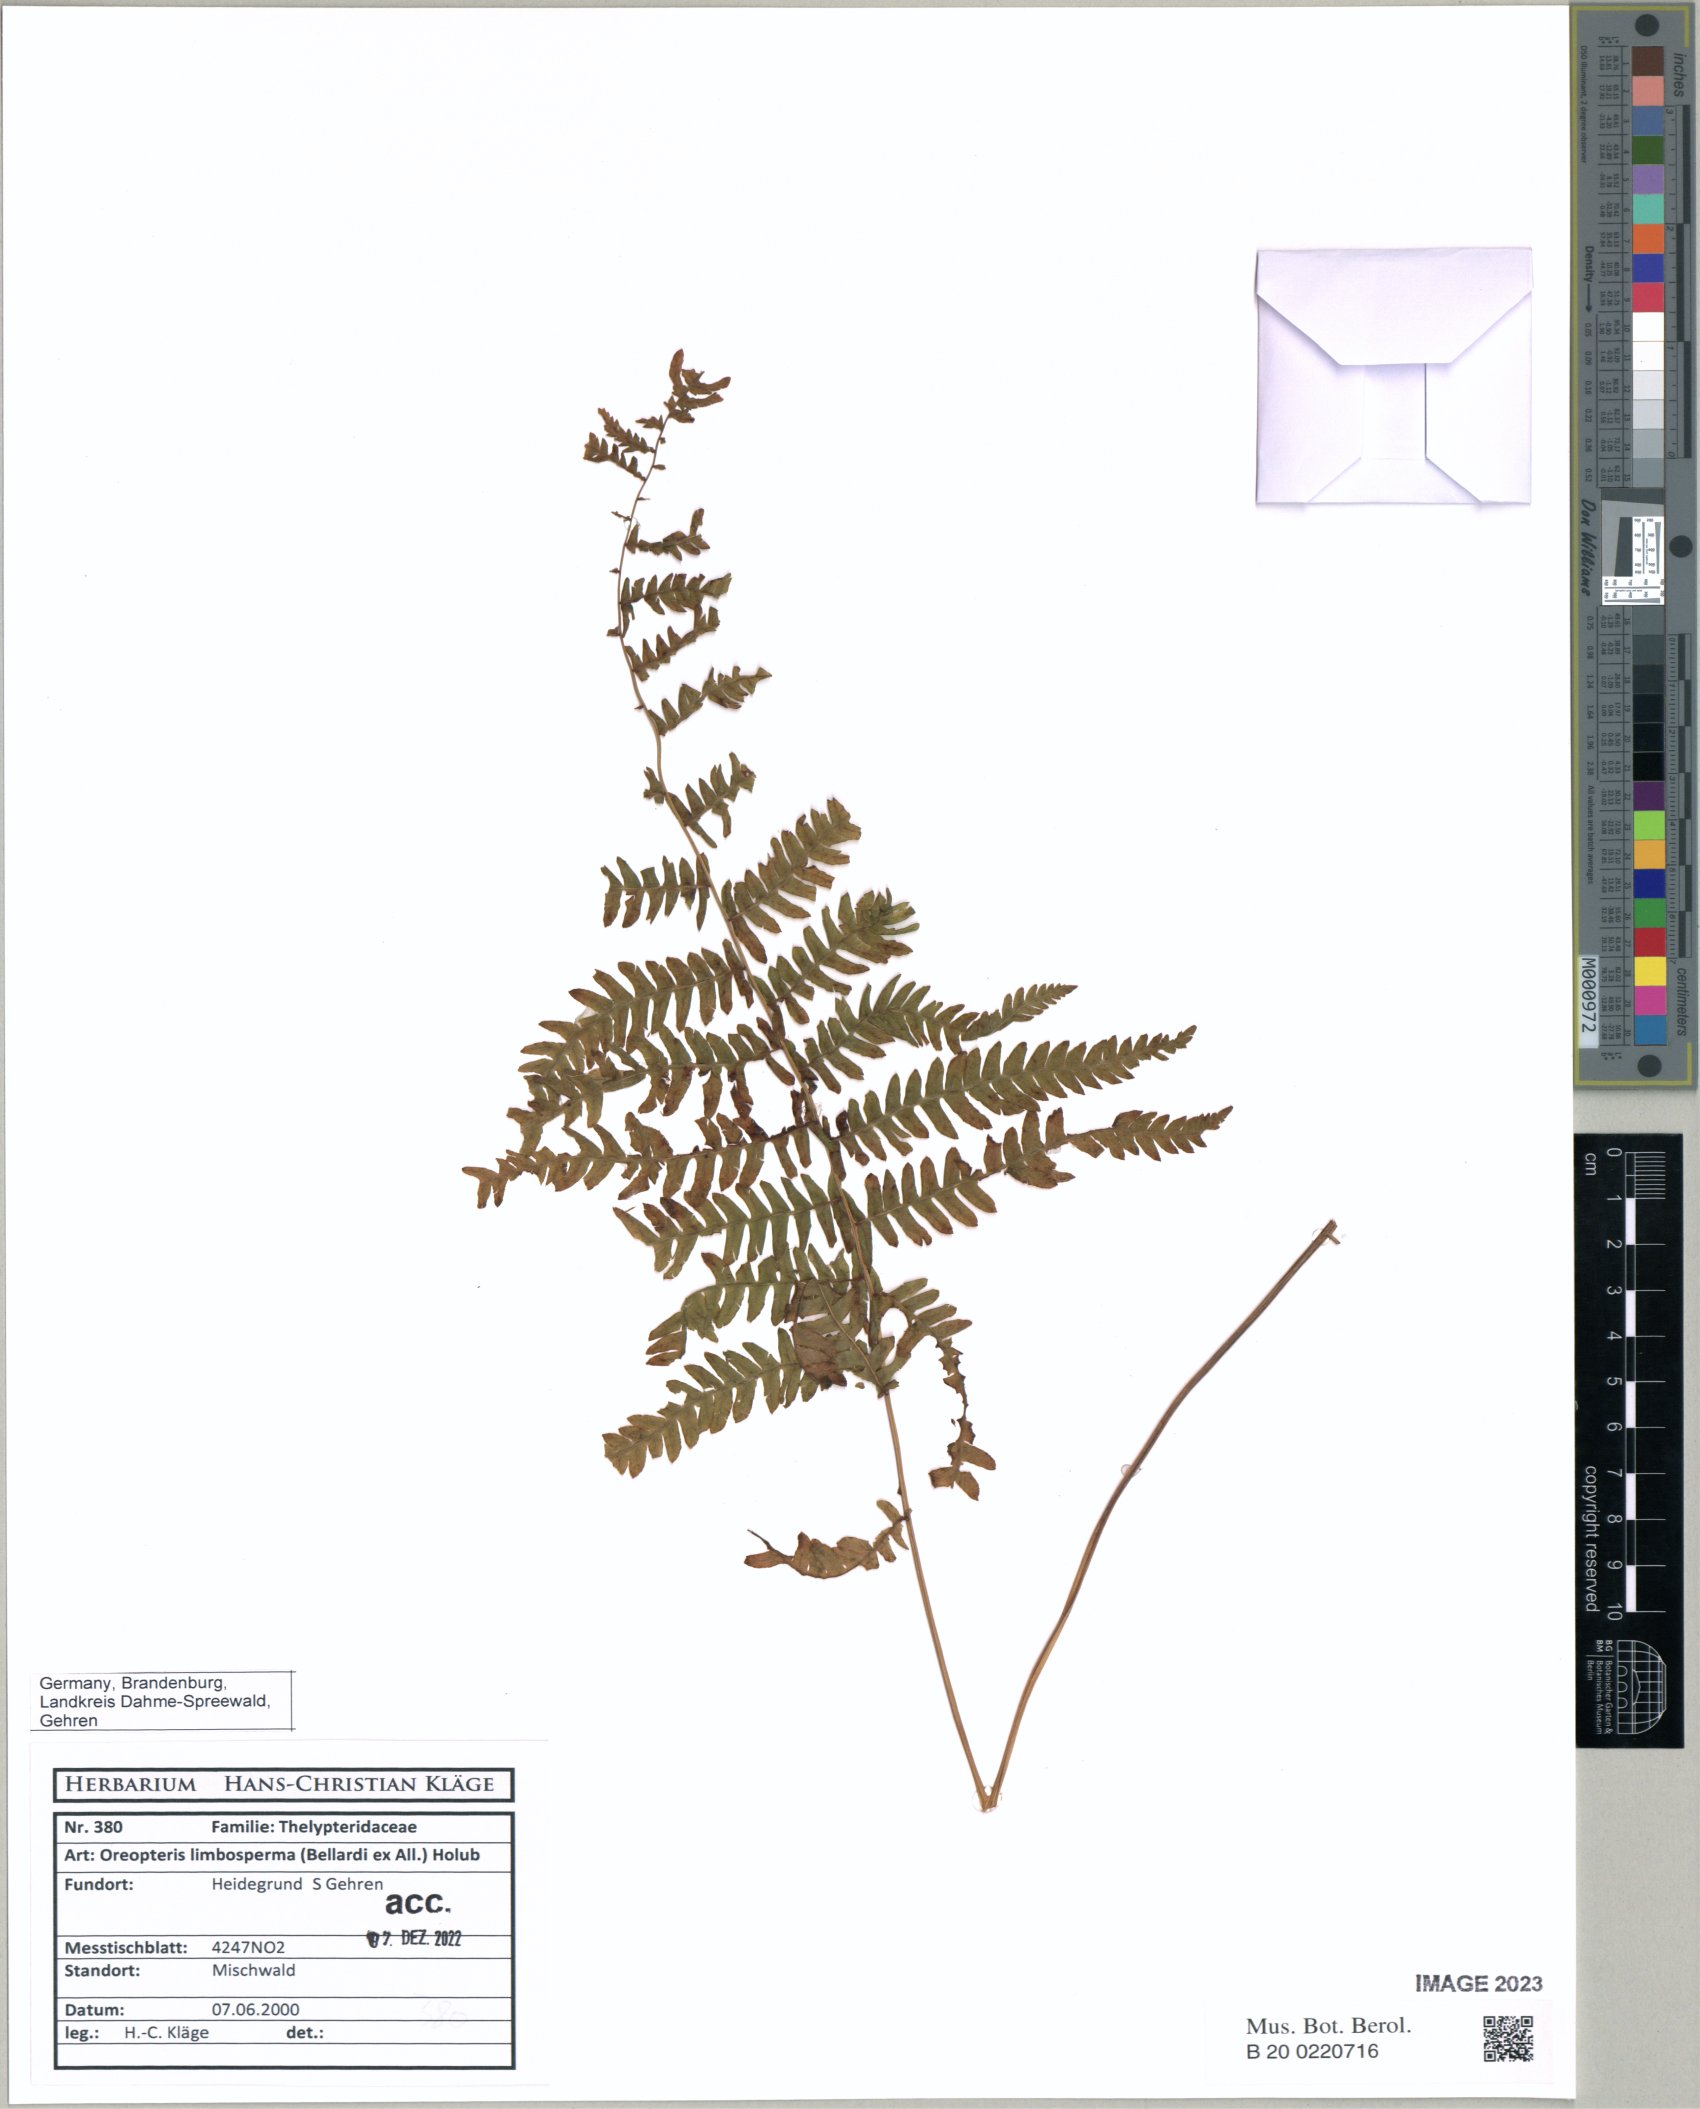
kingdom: Plantae
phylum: Tracheophyta
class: Polypodiopsida
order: Polypodiales
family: Thelypteridaceae
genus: Oreopteris
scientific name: Oreopteris limbosperma
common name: Lemon-scented fern
